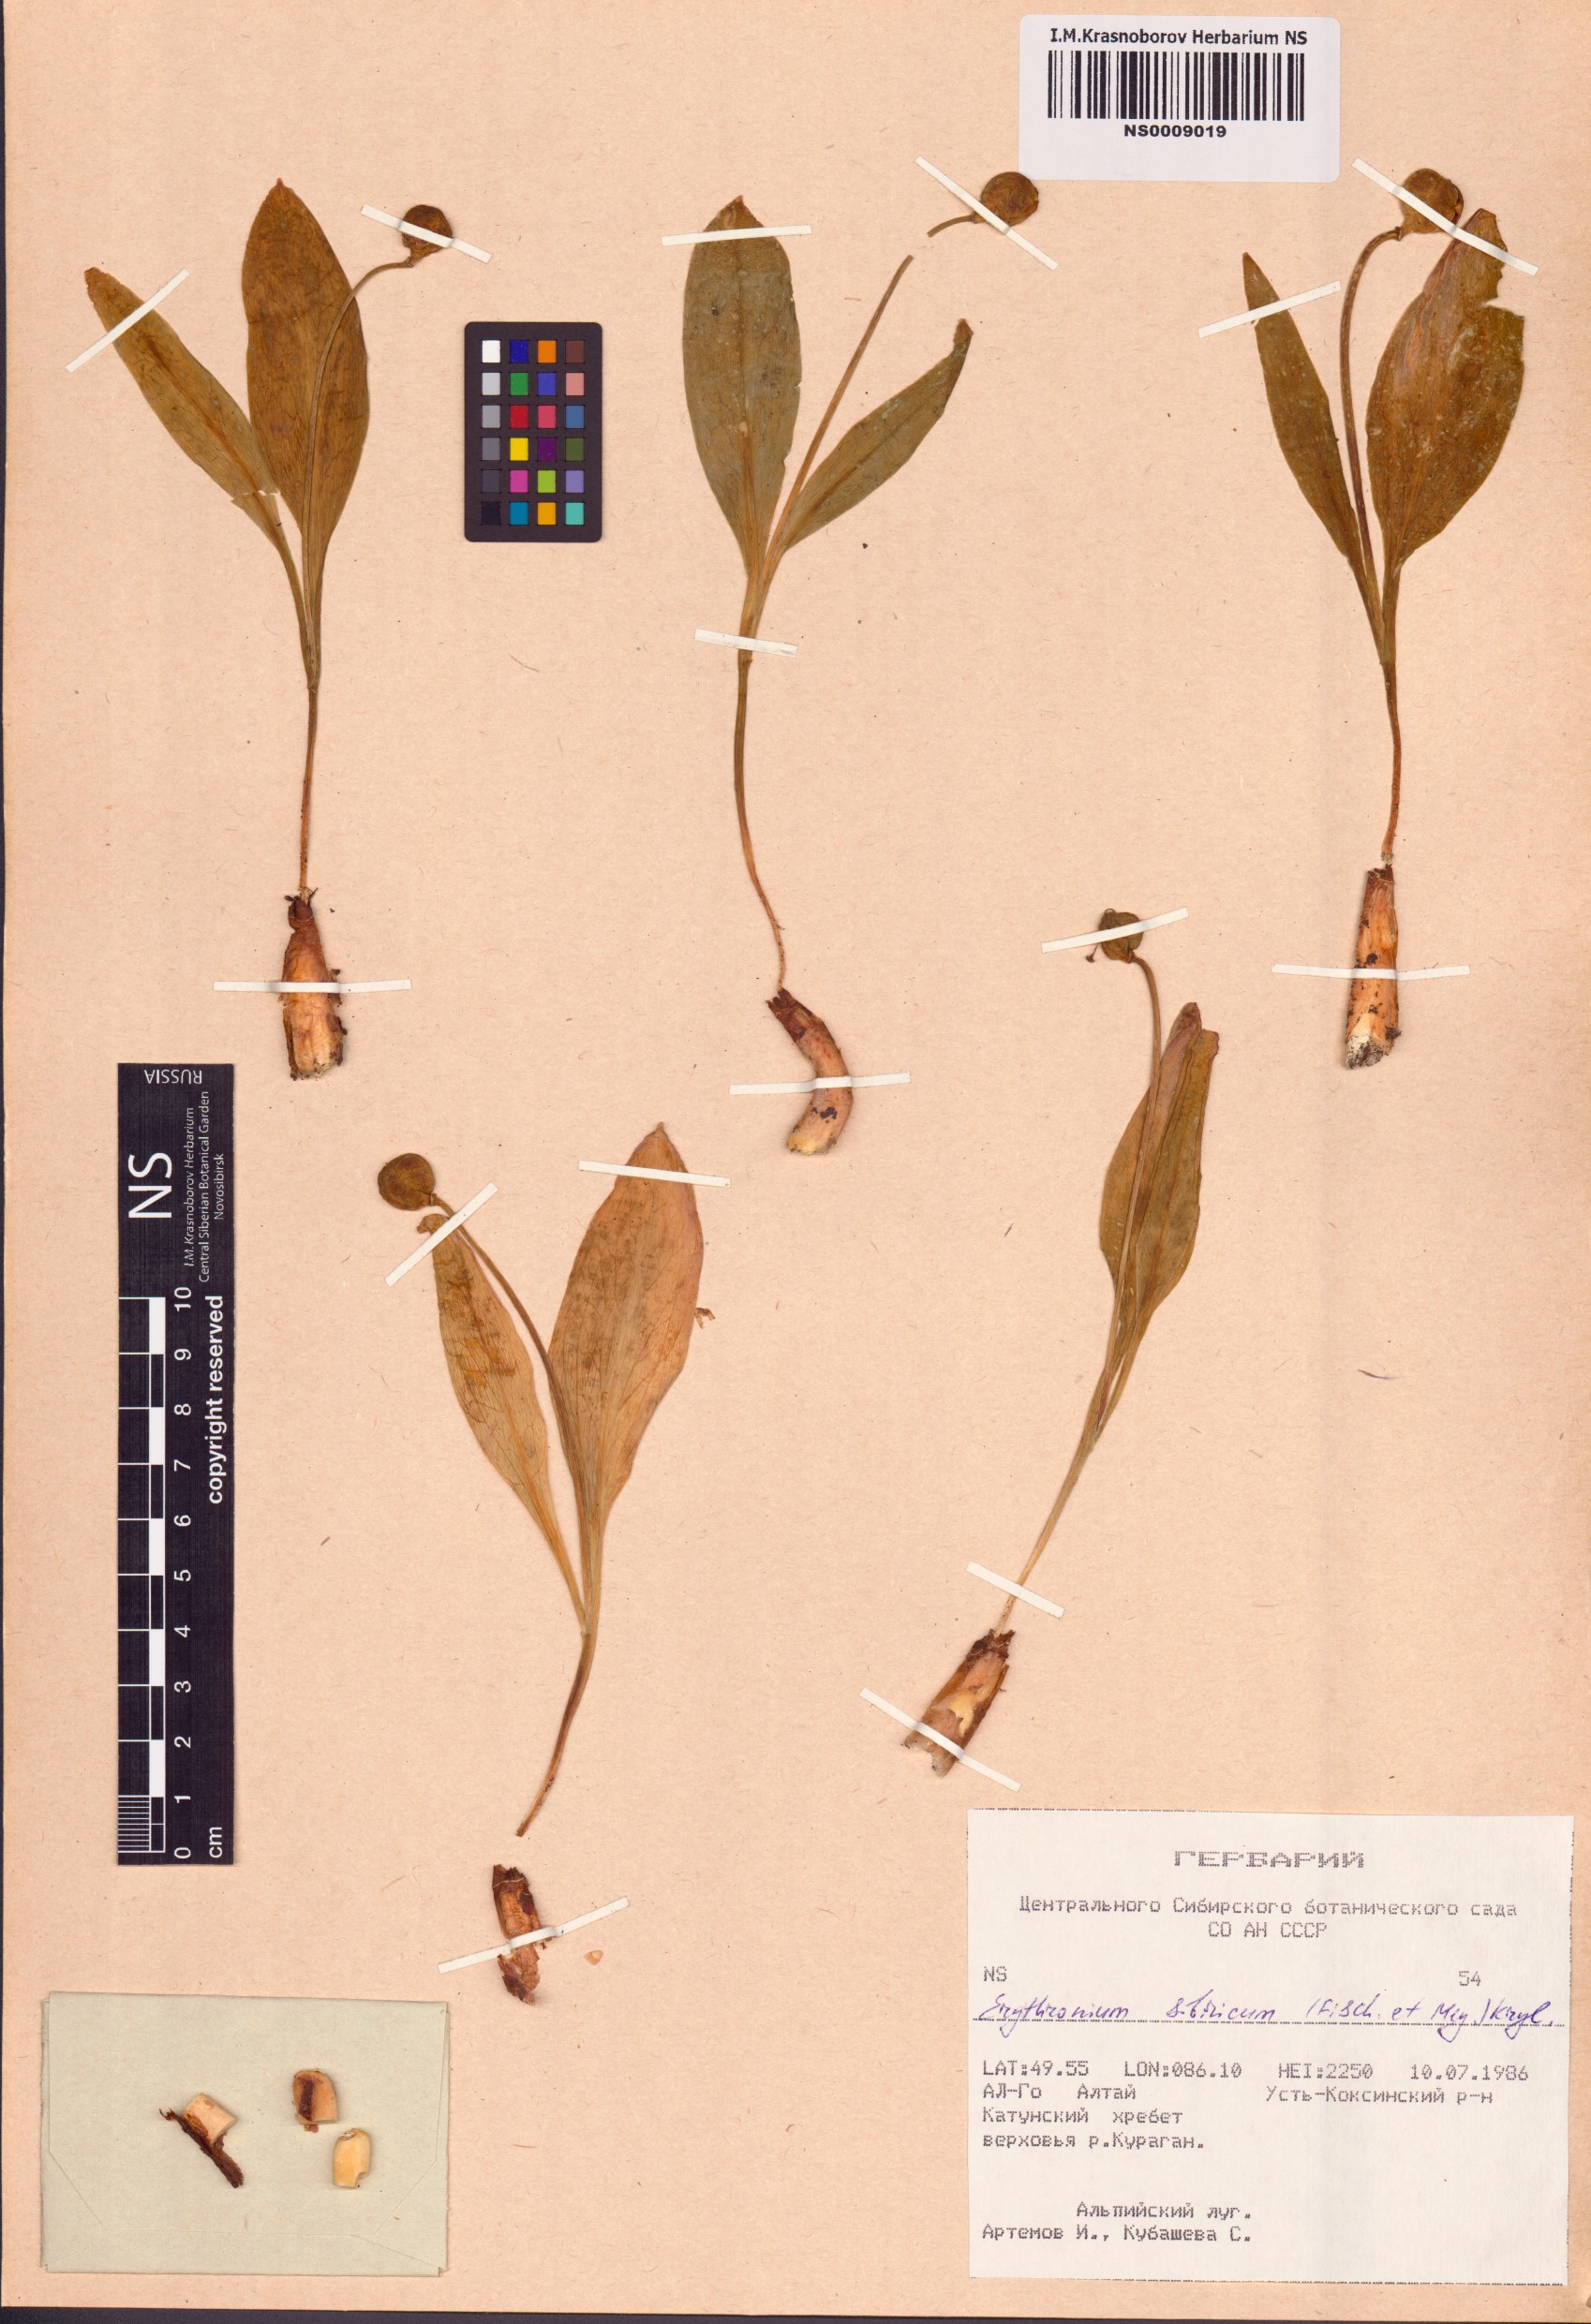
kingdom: Plantae
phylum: Tracheophyta
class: Liliopsida
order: Liliales
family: Liliaceae
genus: Erythronium
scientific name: Erythronium sibiricum
